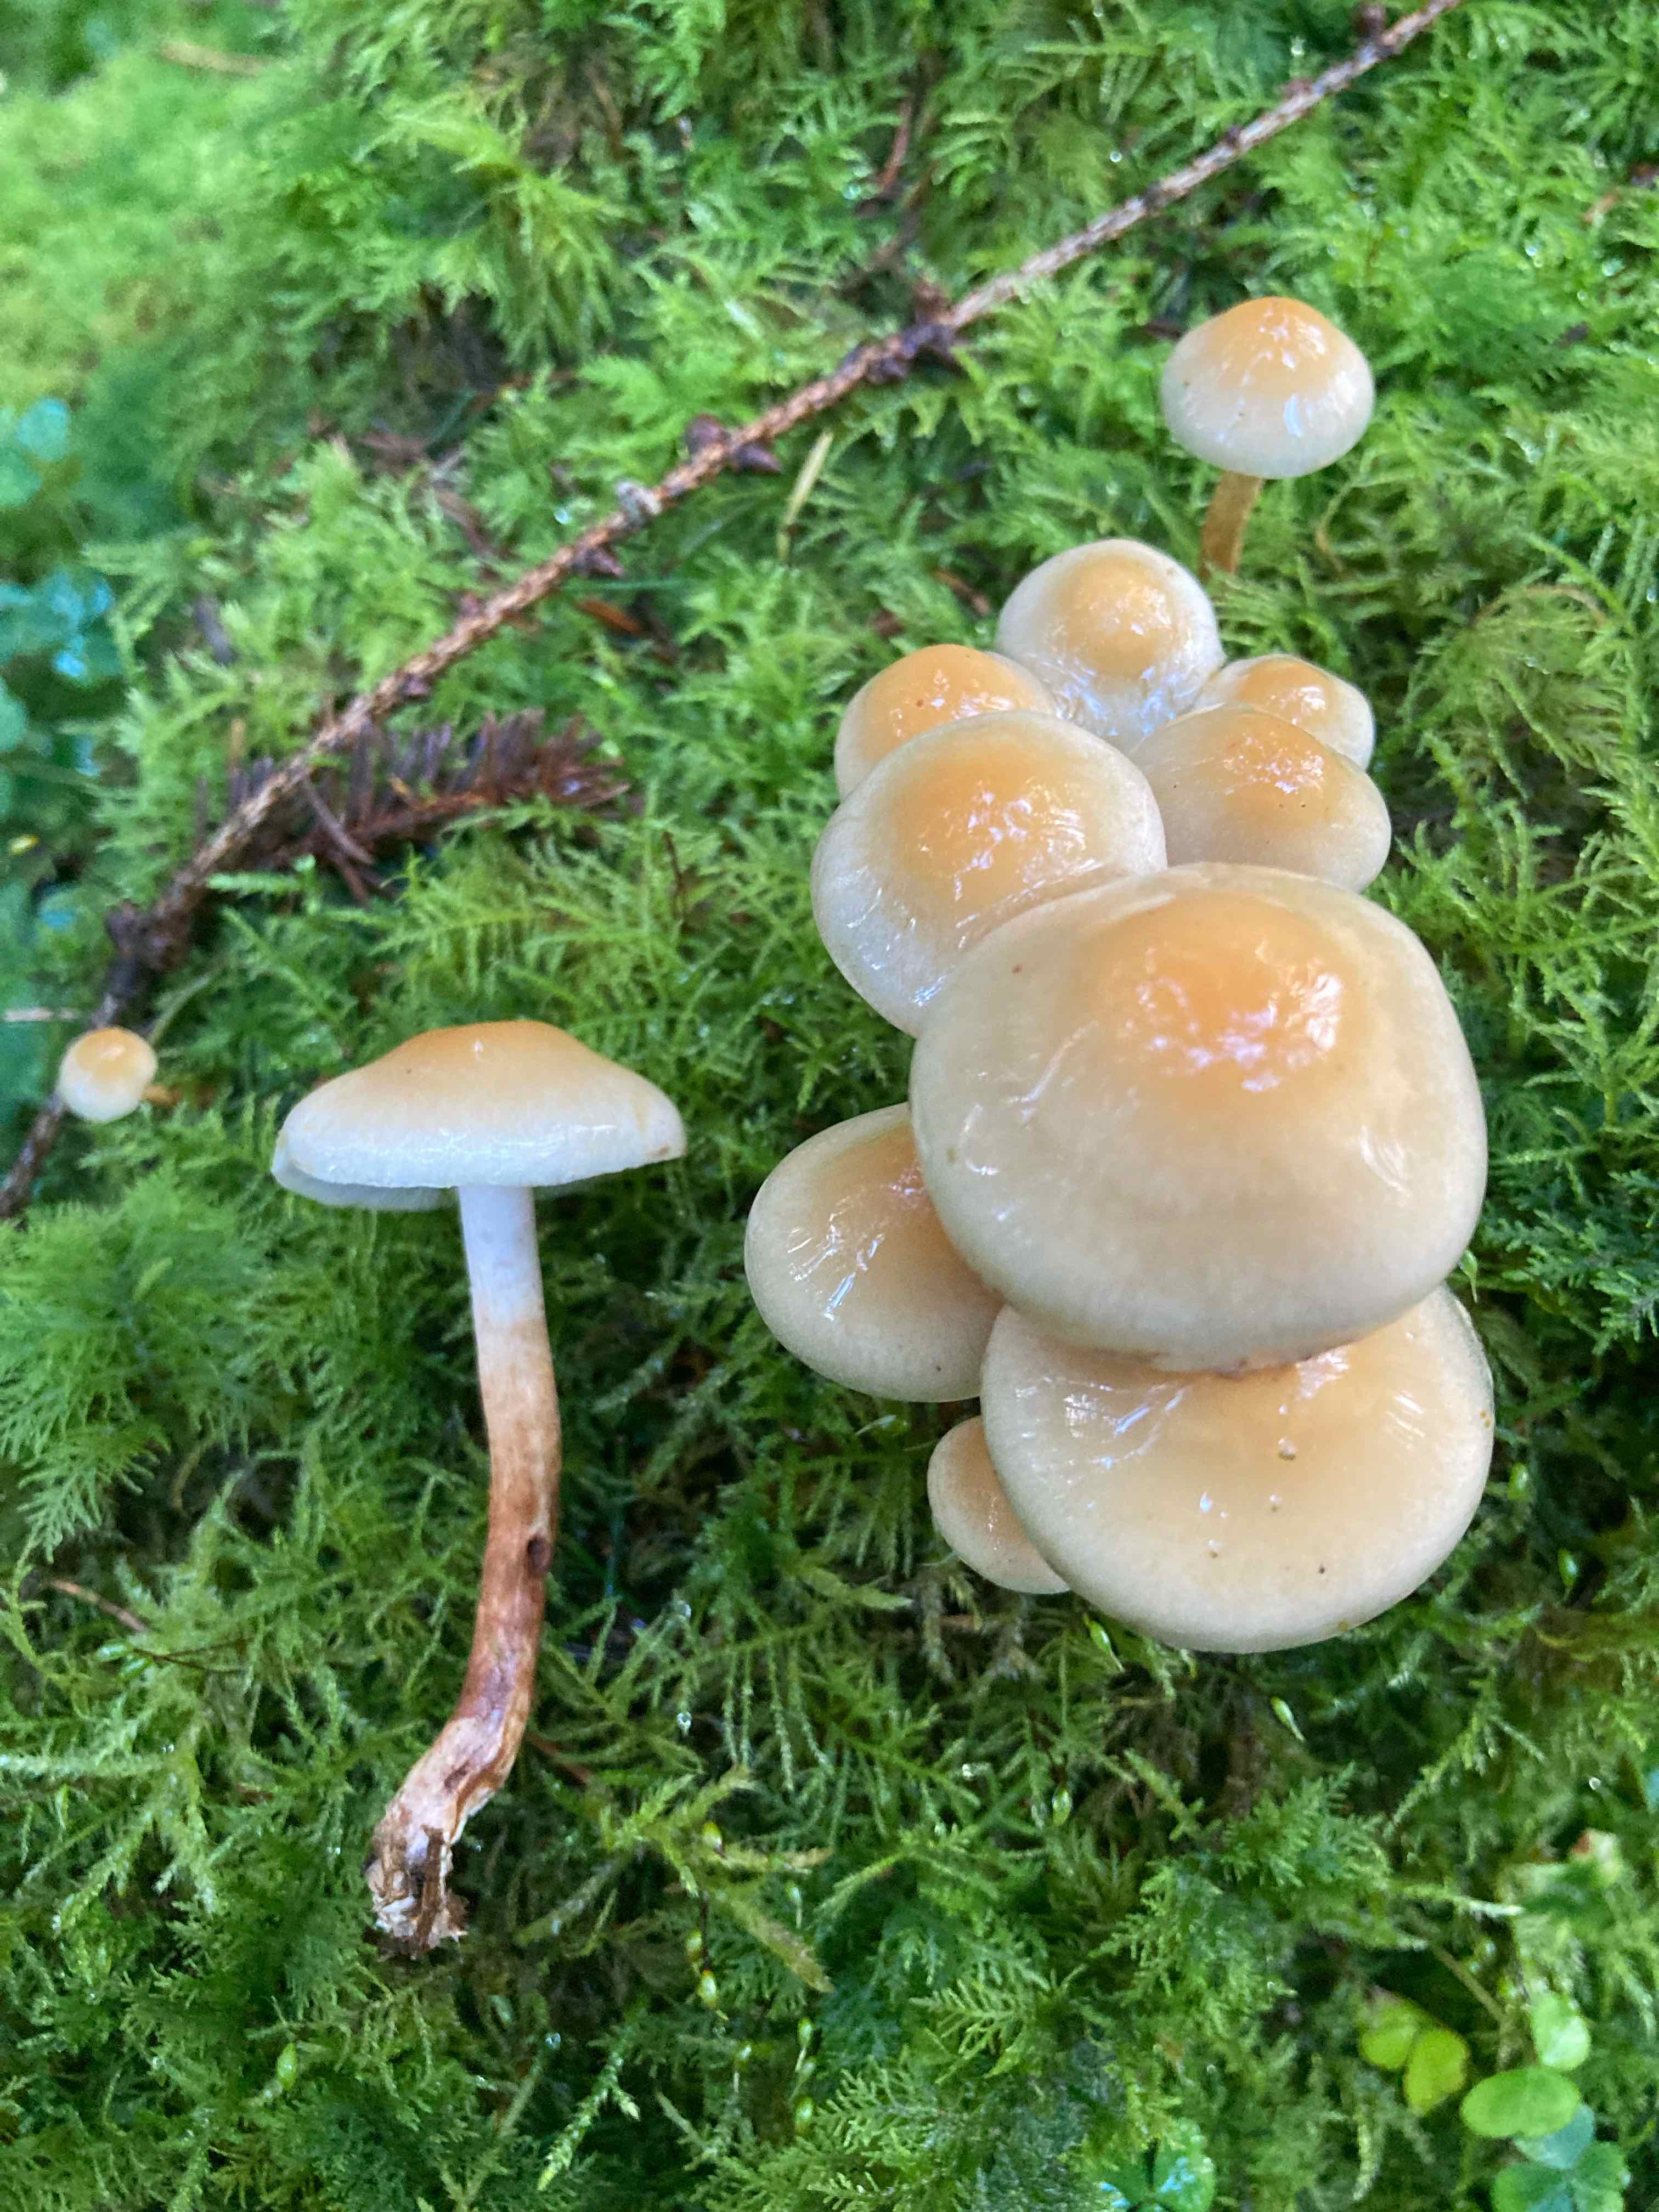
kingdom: Fungi
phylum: Basidiomycota
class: Agaricomycetes
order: Agaricales
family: Strophariaceae
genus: Hypholoma
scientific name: Hypholoma capnoides
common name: gran-svovlhat
